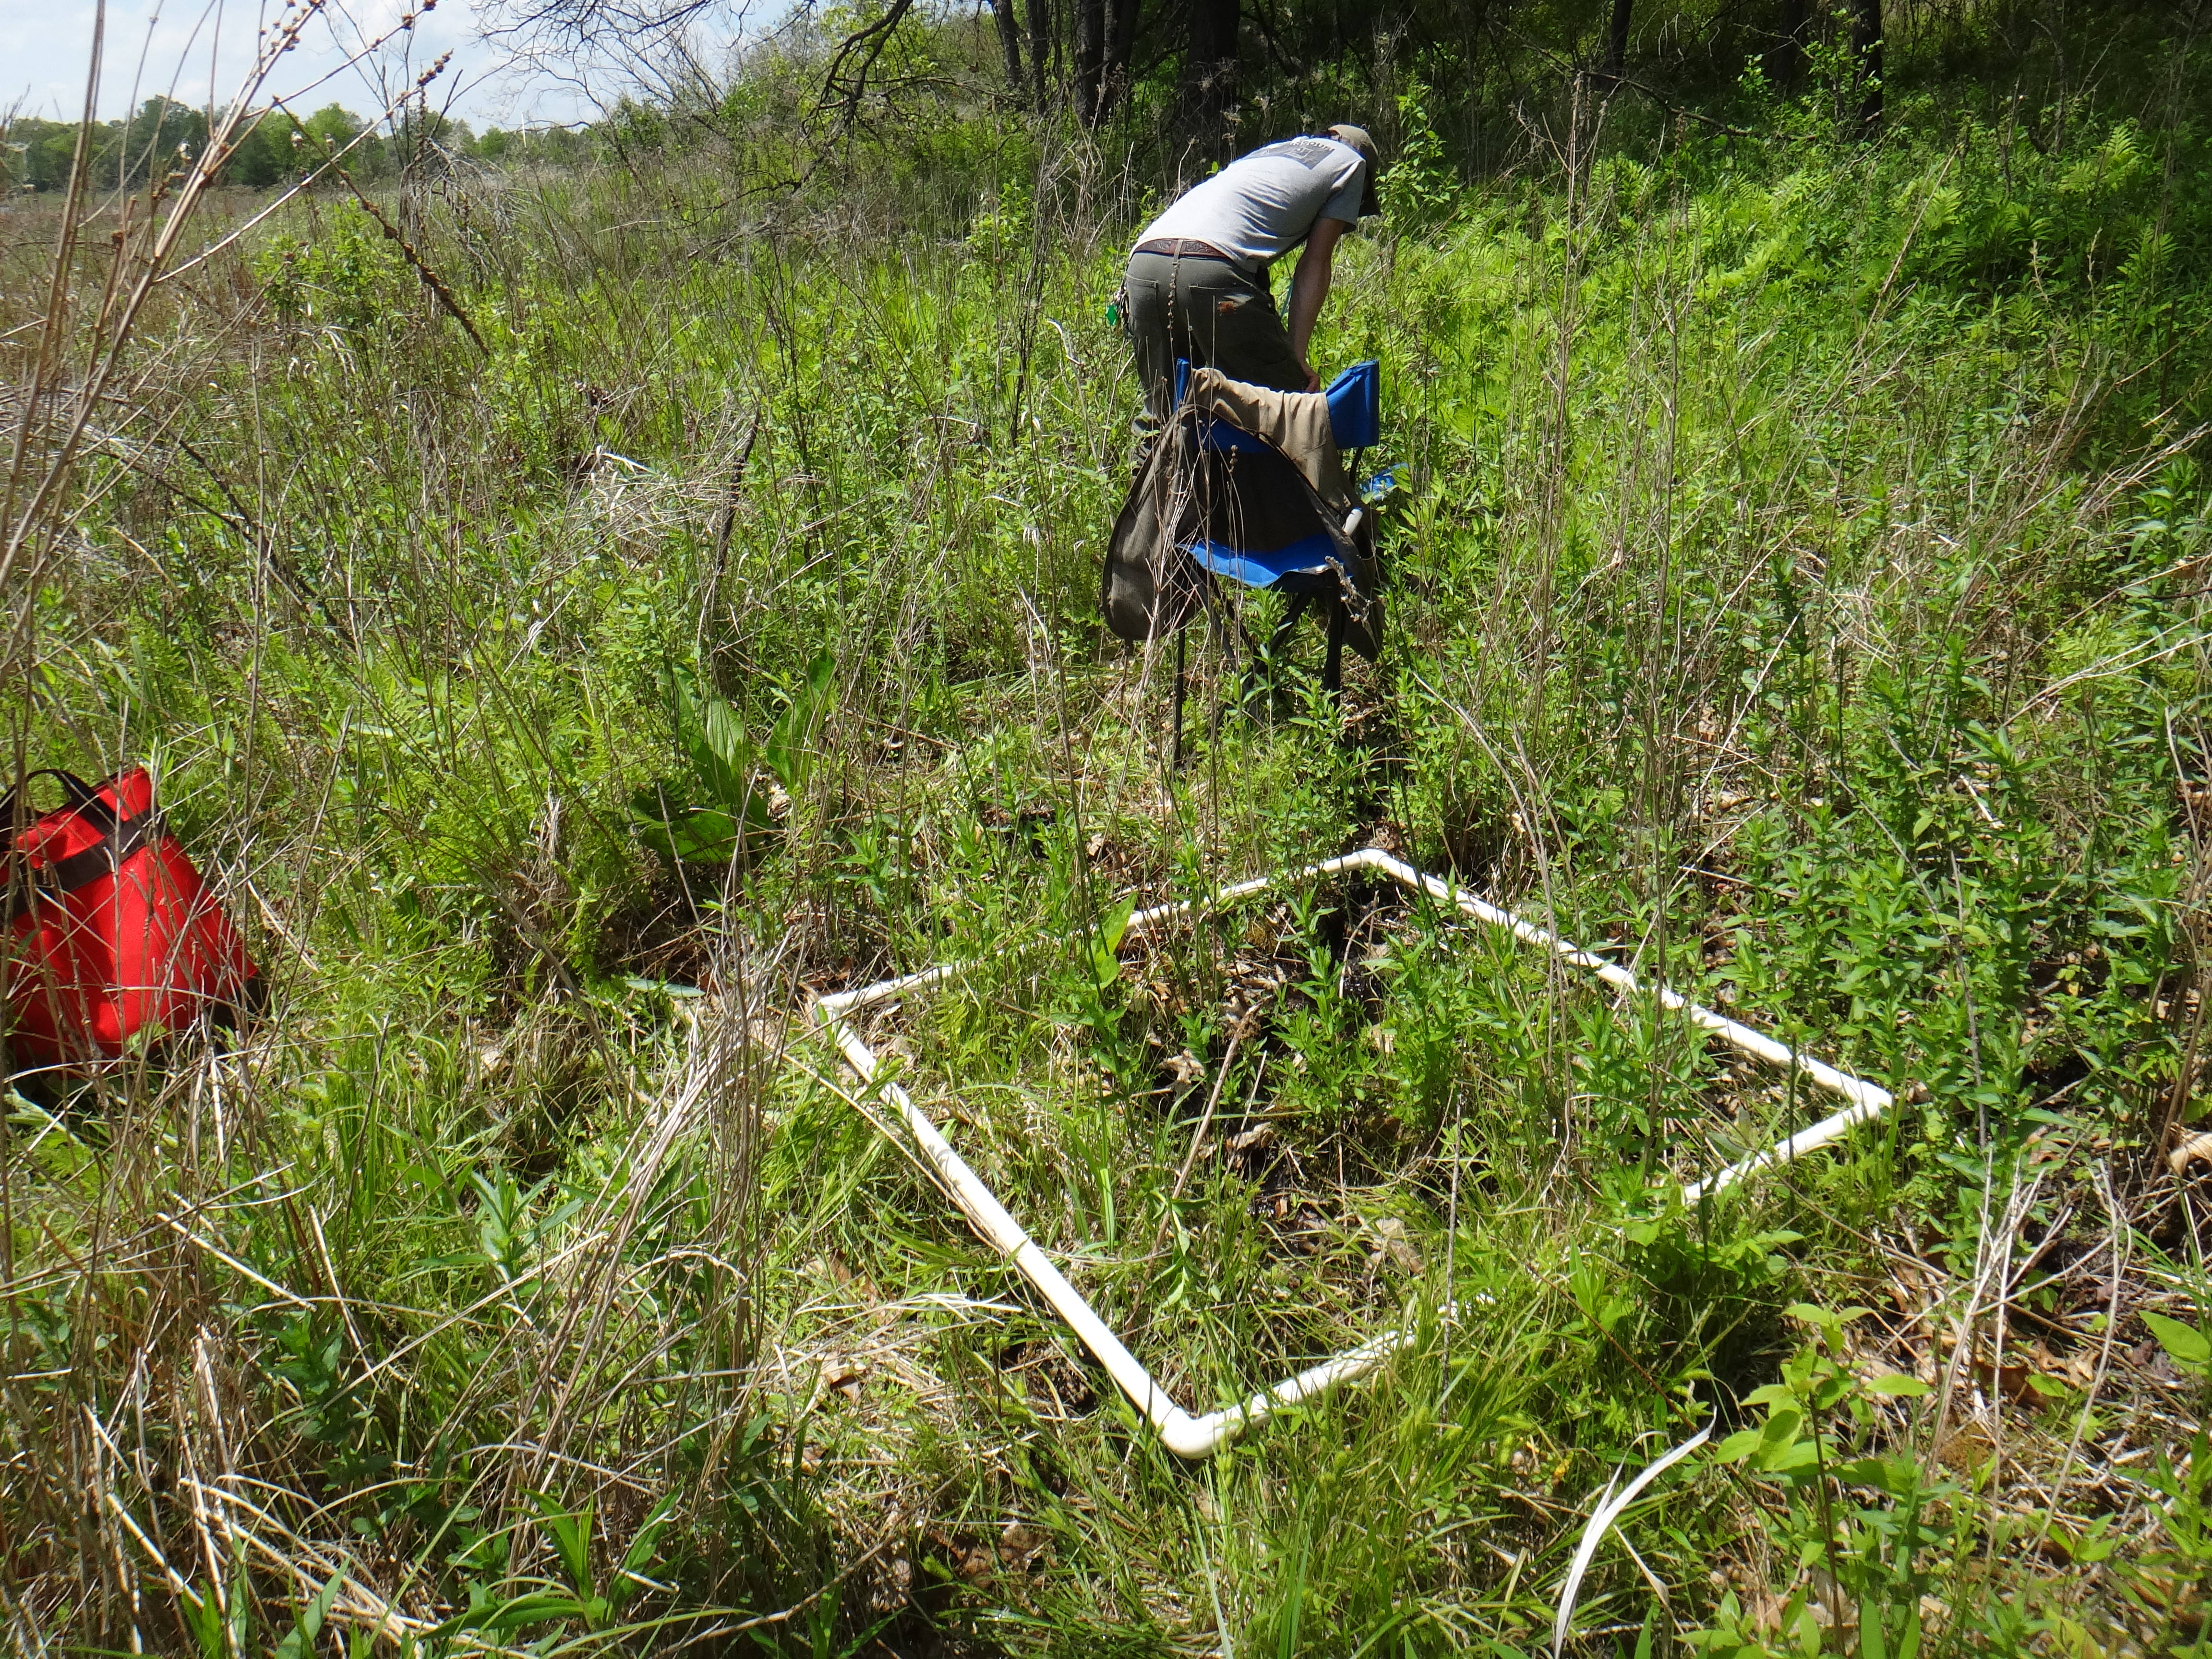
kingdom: Plantae
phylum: Tracheophyta
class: Magnoliopsida
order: Lamiales
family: Lamiaceae
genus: Pycnanthemum
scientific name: Pycnanthemum virginianum
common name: Virginia mountain-mint
